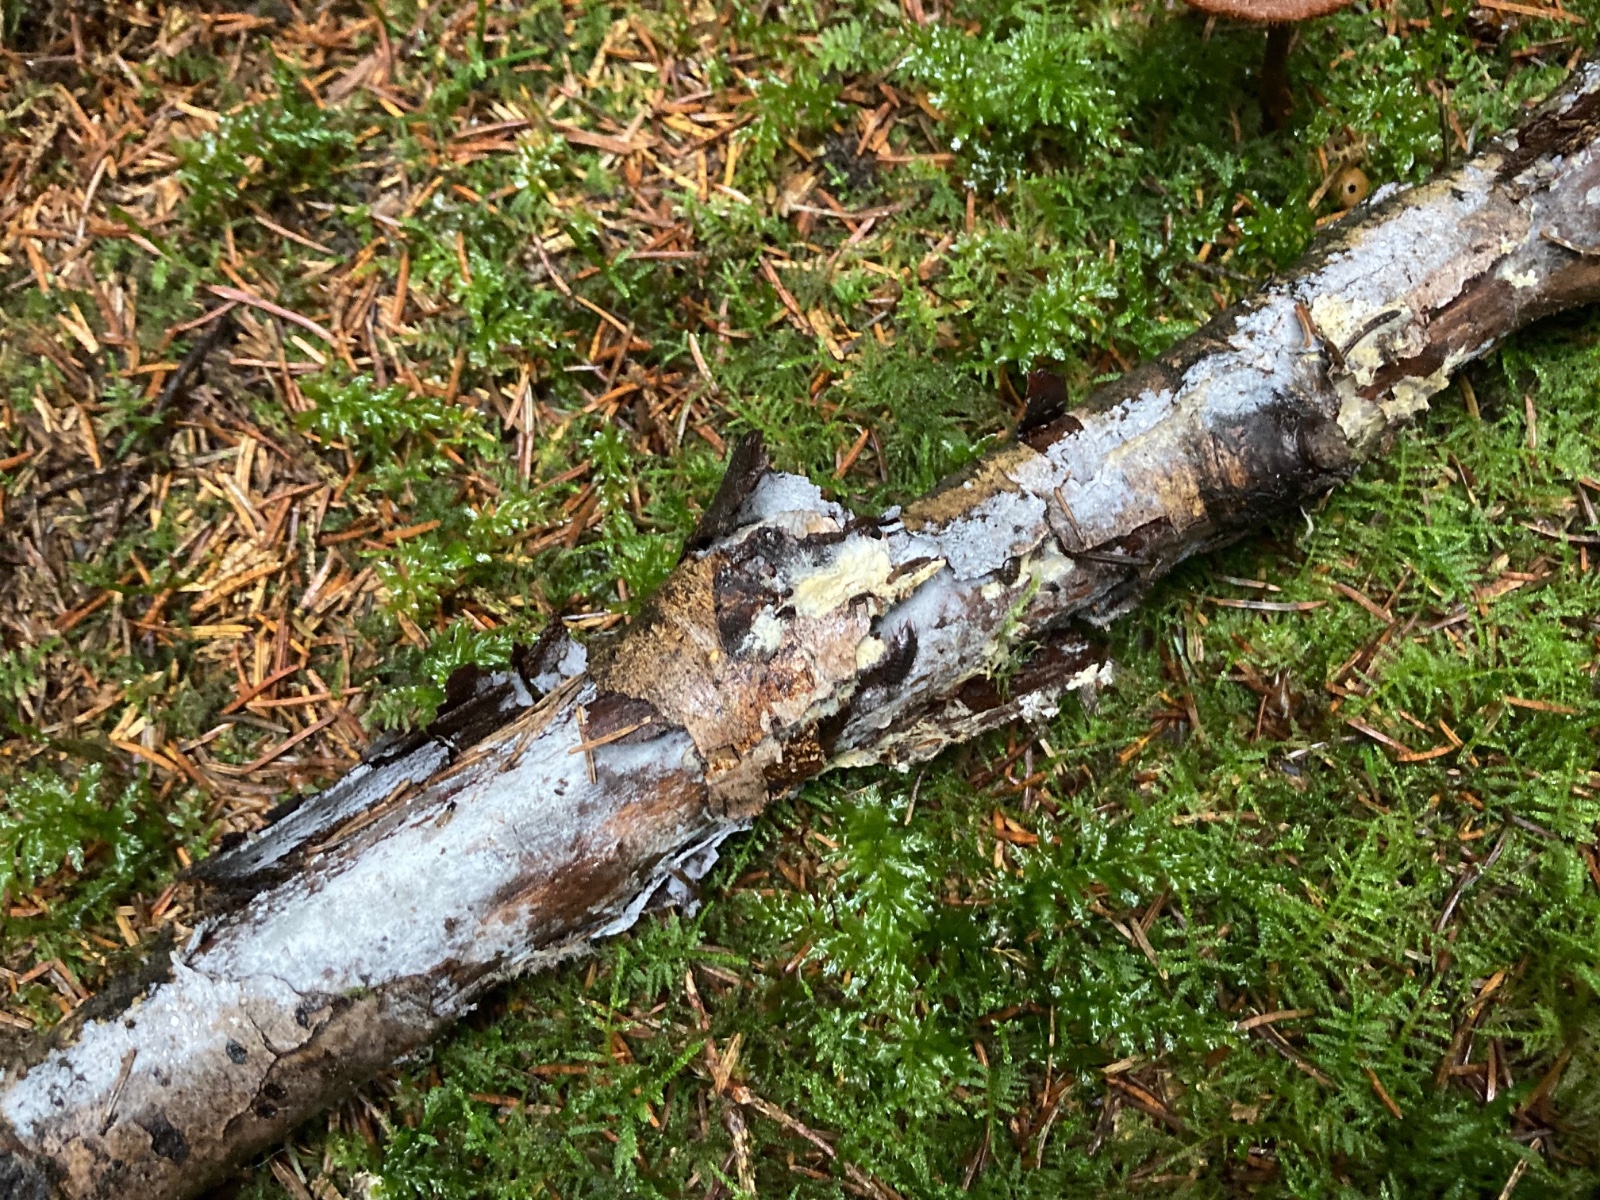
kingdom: Fungi
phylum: Basidiomycota
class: Agaricomycetes
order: Atheliales
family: Atheliaceae
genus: Amphinema
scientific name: Amphinema byssoides
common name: almindelig rodhinde
